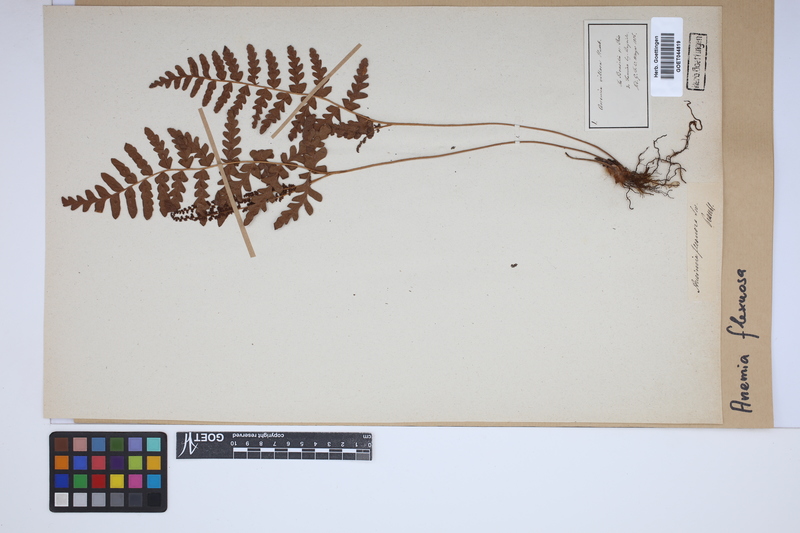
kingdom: Plantae
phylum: Tracheophyta
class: Polypodiopsida
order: Schizaeales
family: Anemiaceae
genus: Anemia
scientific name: Anemia flexuosa
